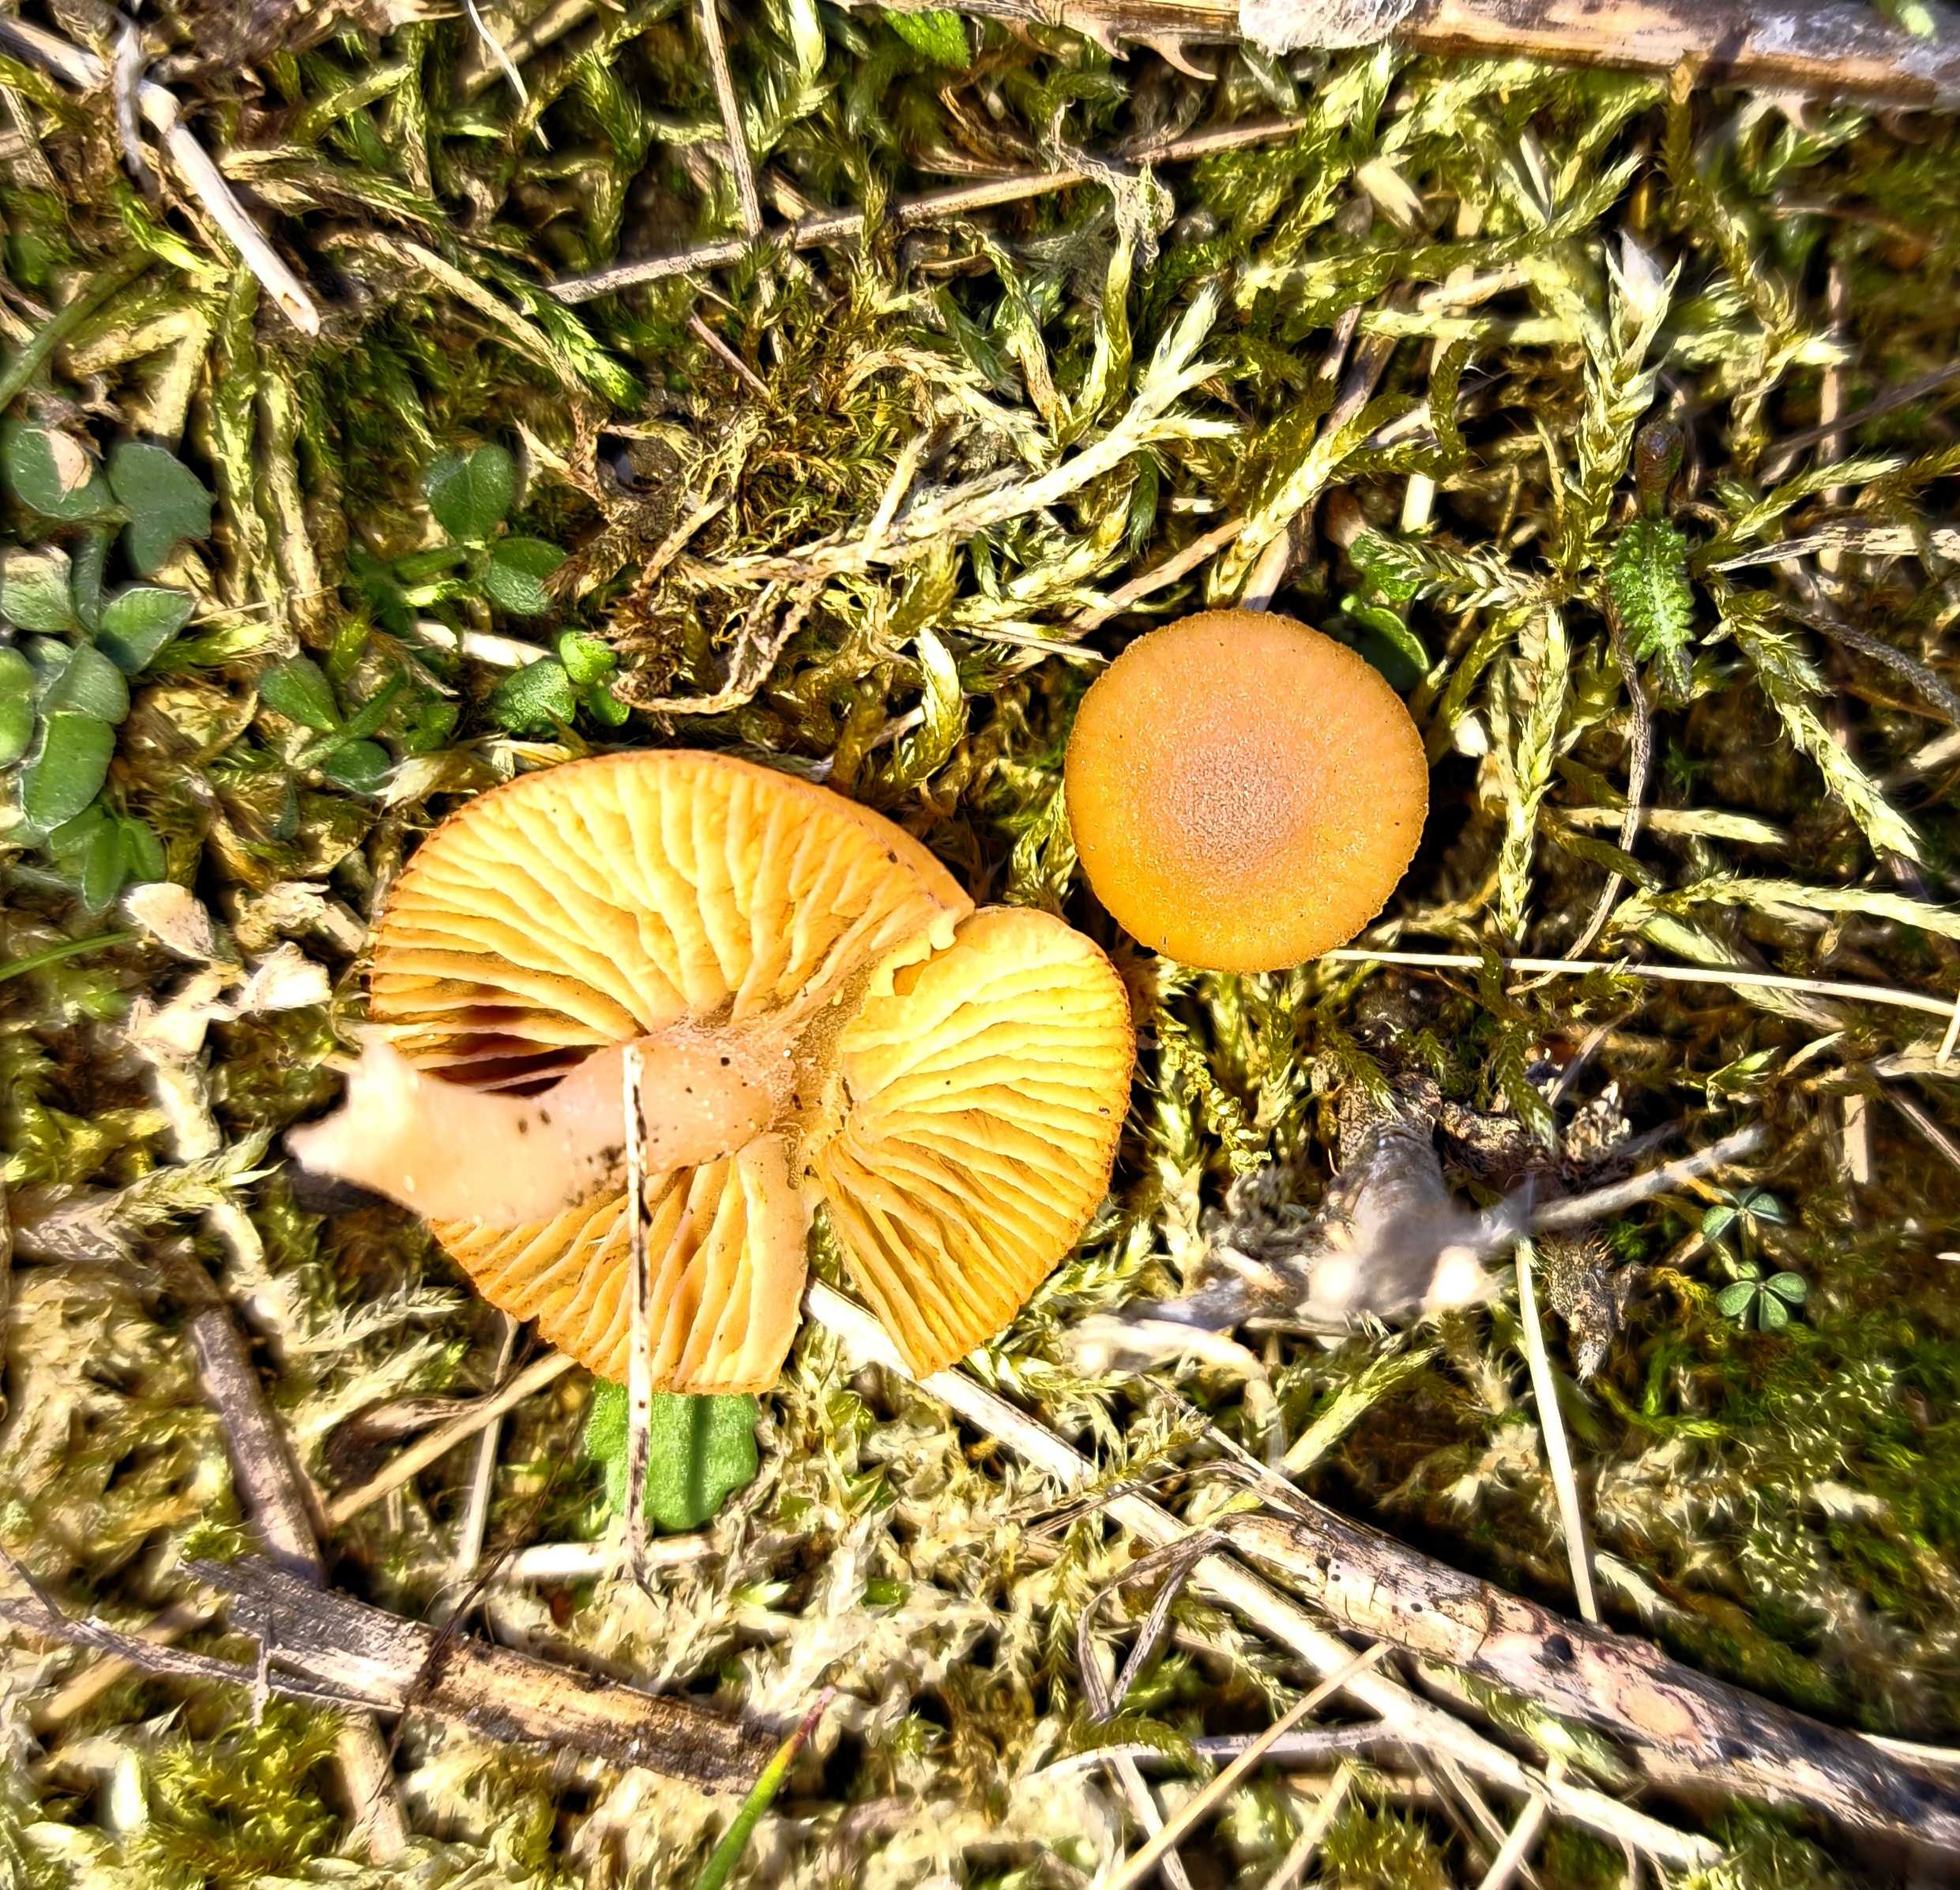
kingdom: Fungi
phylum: Basidiomycota
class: Agaricomycetes
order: Agaricales
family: Tubariaceae
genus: Tubaria
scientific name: Tubaria furfuracea
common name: kliddet fnughat
